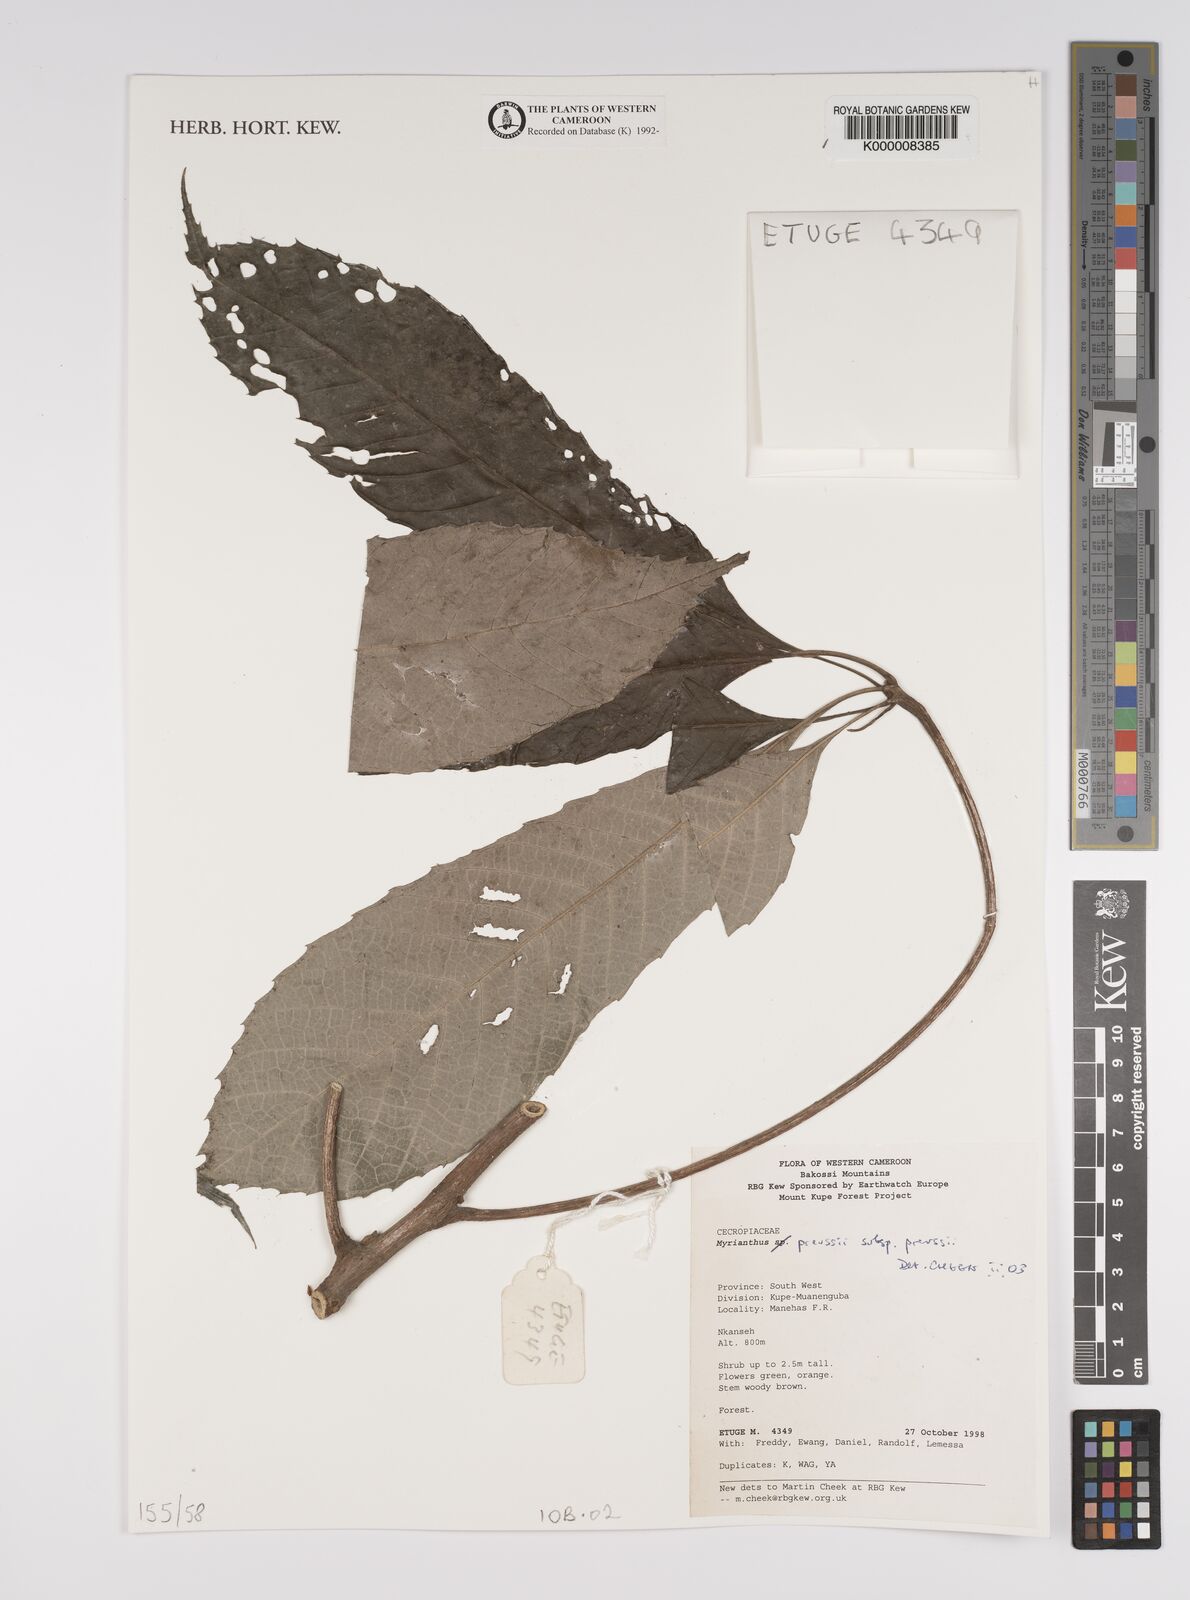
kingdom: Plantae
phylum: Tracheophyta
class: Magnoliopsida
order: Rosales
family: Urticaceae
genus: Myrianthus
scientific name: Myrianthus preussii
